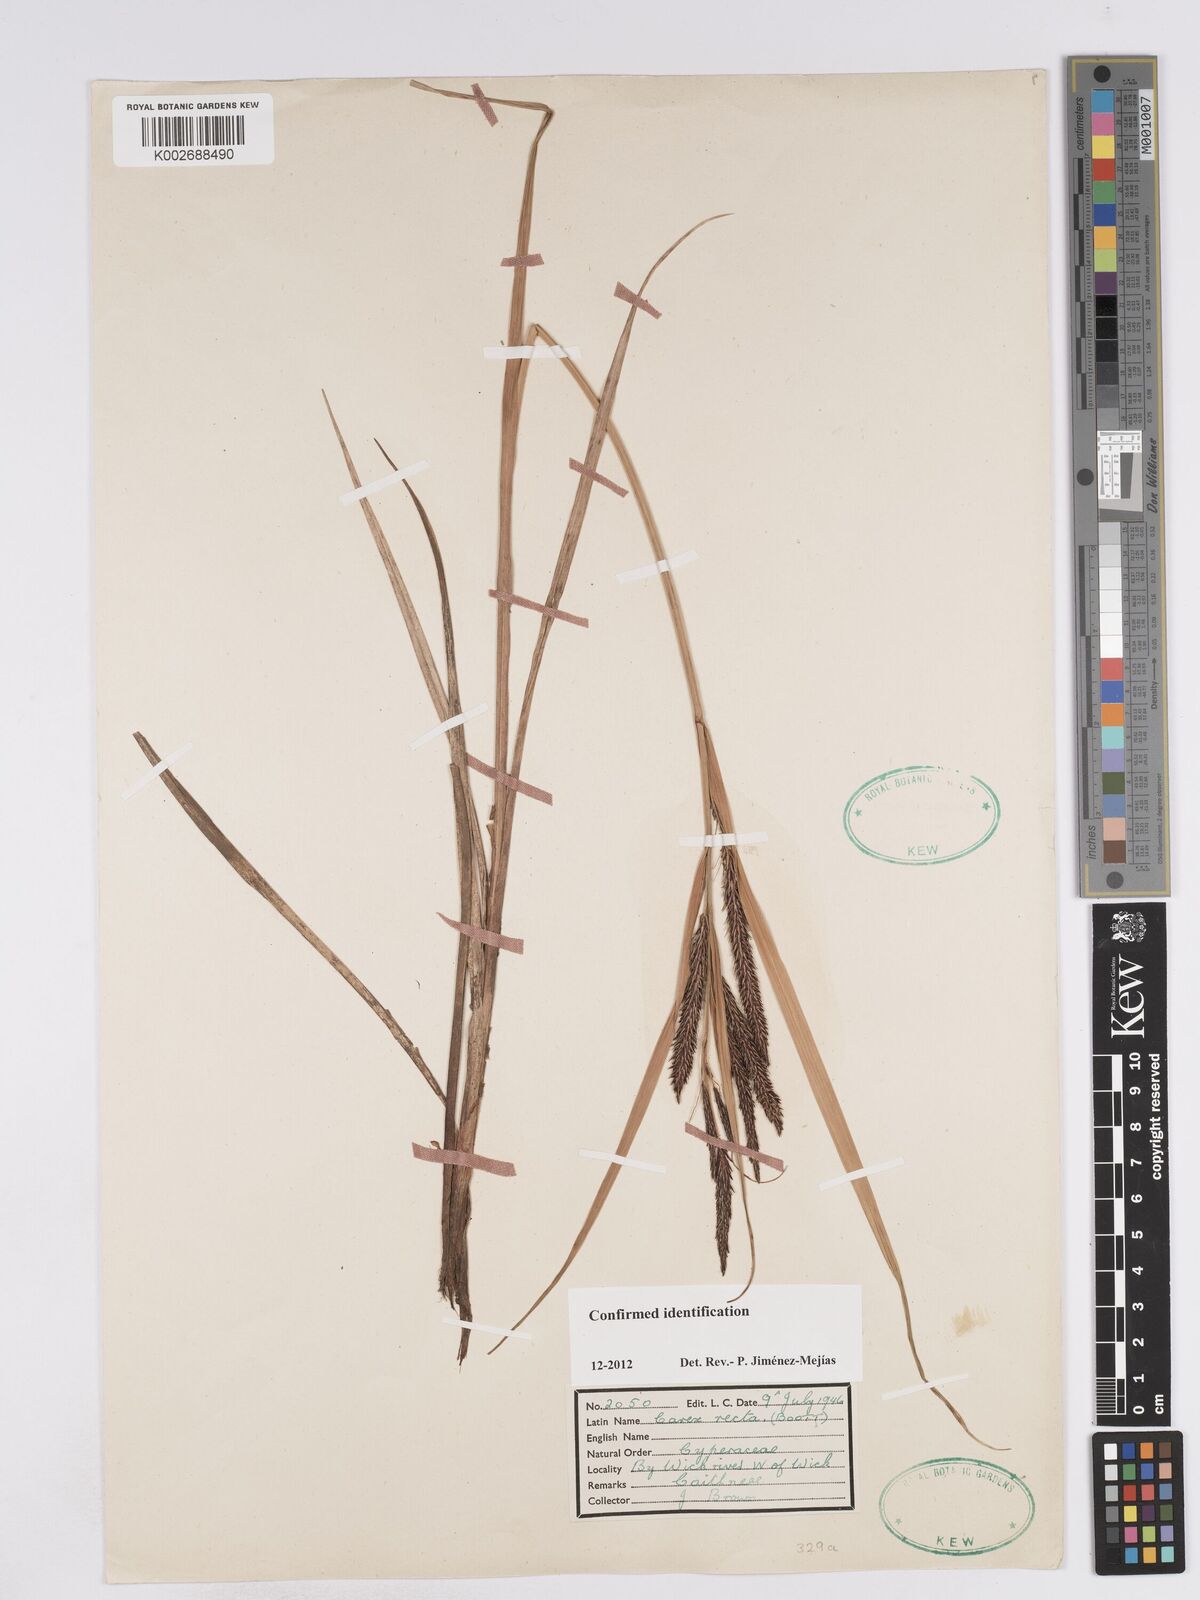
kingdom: Plantae
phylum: Tracheophyta
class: Liliopsida
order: Poales
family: Cyperaceae
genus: Carex
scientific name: Carex recta
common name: Estuarine sedge
